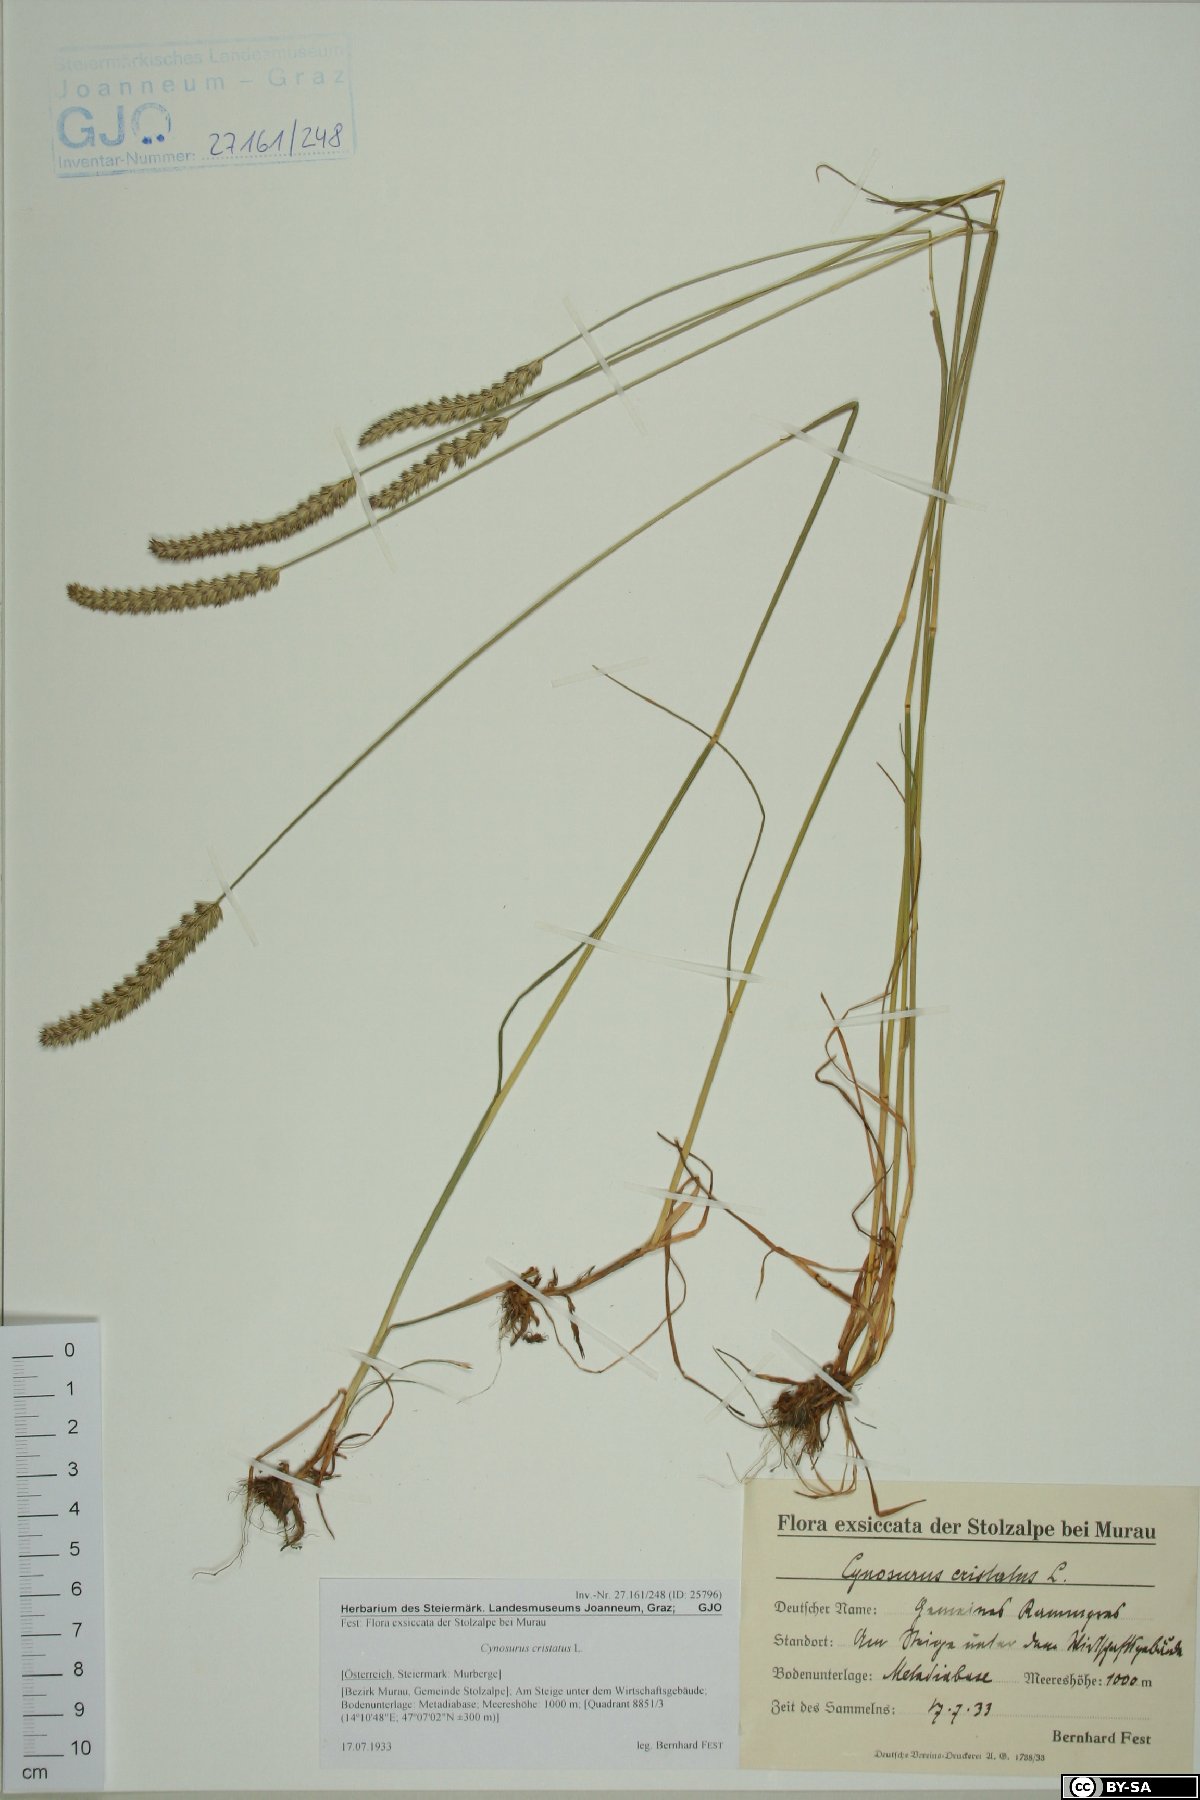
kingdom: Plantae
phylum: Tracheophyta
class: Liliopsida
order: Poales
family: Poaceae
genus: Cynosurus
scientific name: Cynosurus cristatus
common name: Crested dog's-tail
